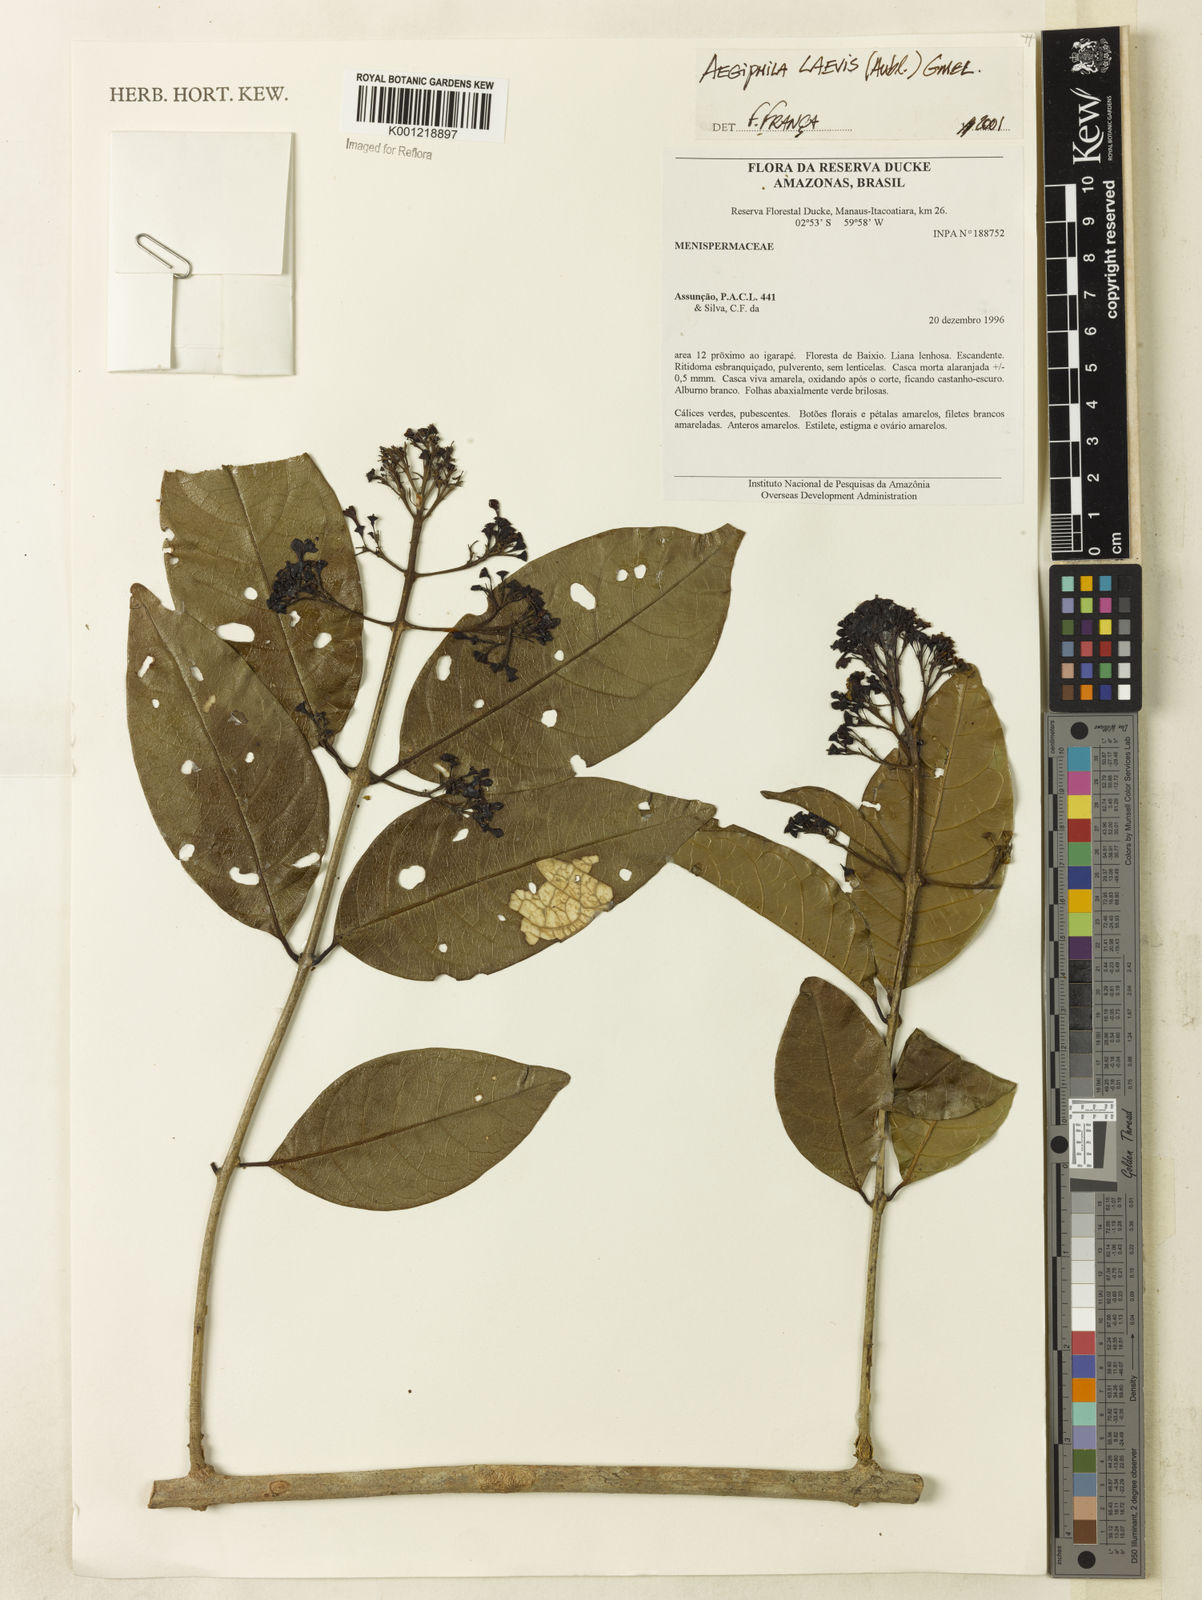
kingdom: Plantae
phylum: Tracheophyta
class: Magnoliopsida
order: Lamiales
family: Lamiaceae
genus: Aegiphila
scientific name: Aegiphila laevis
